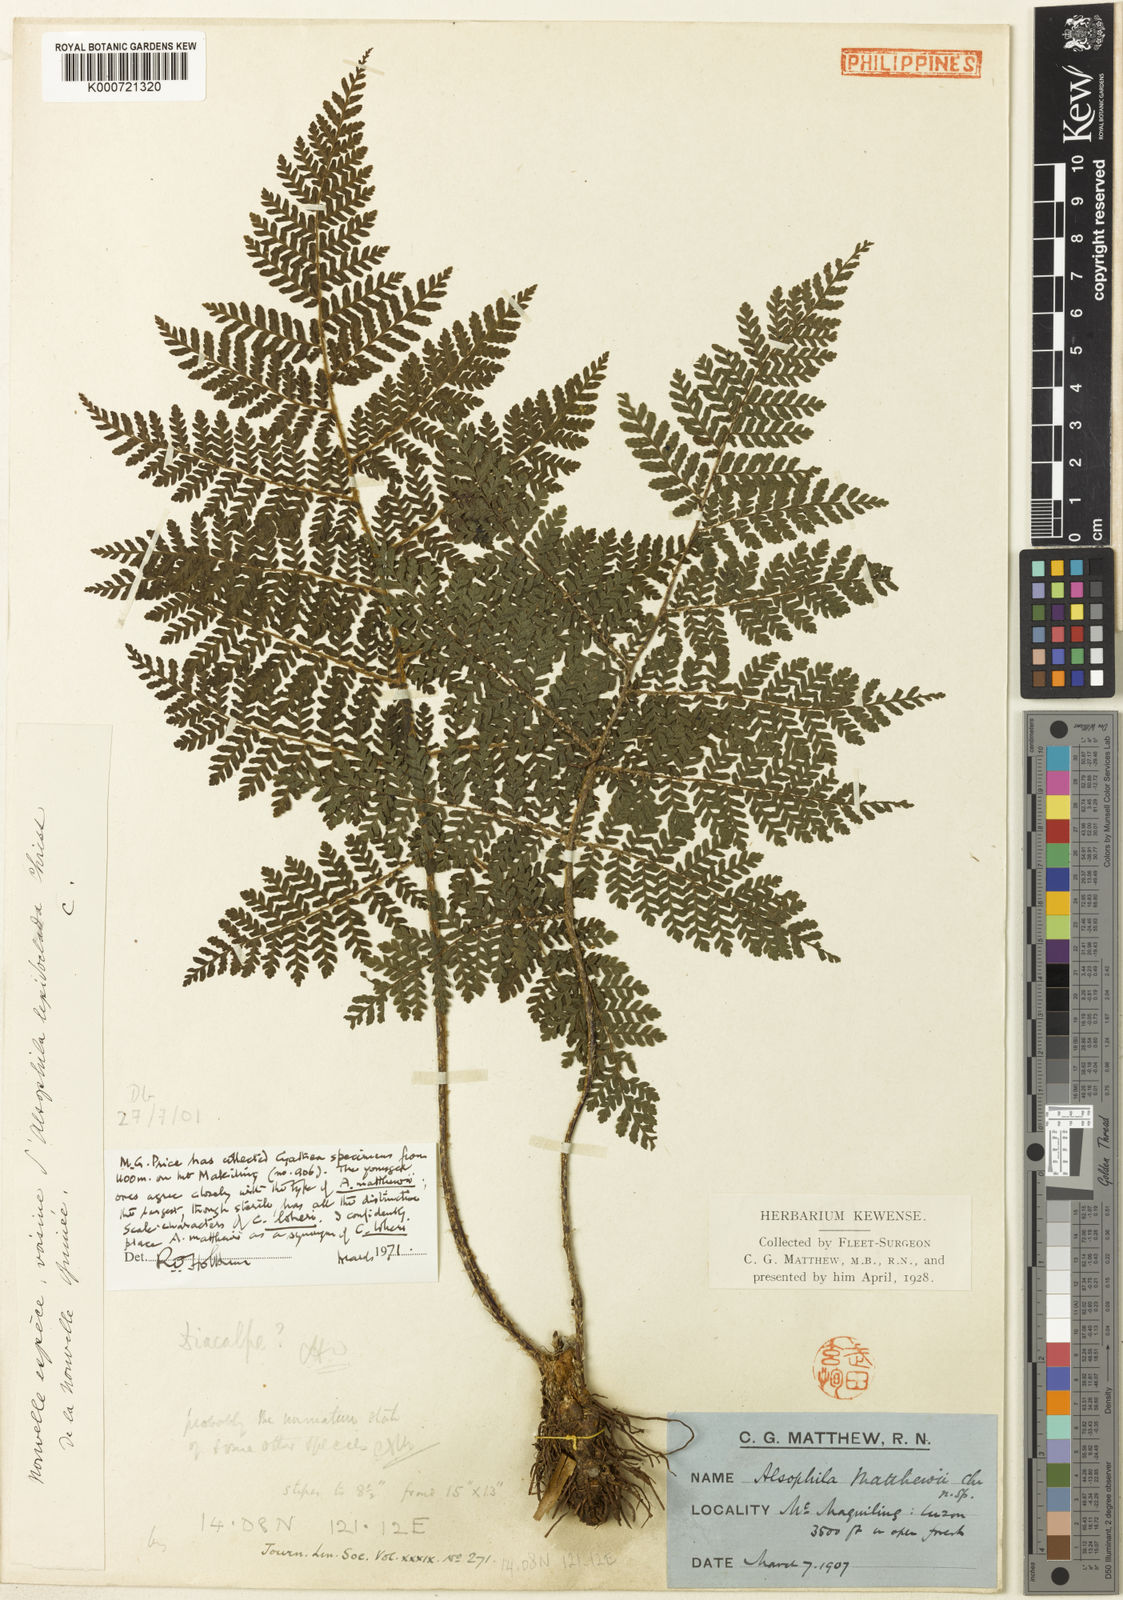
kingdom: Plantae
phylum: Tracheophyta
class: Polypodiopsida
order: Cyatheales
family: Cyatheaceae
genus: Alsophila
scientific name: Alsophila loheri
